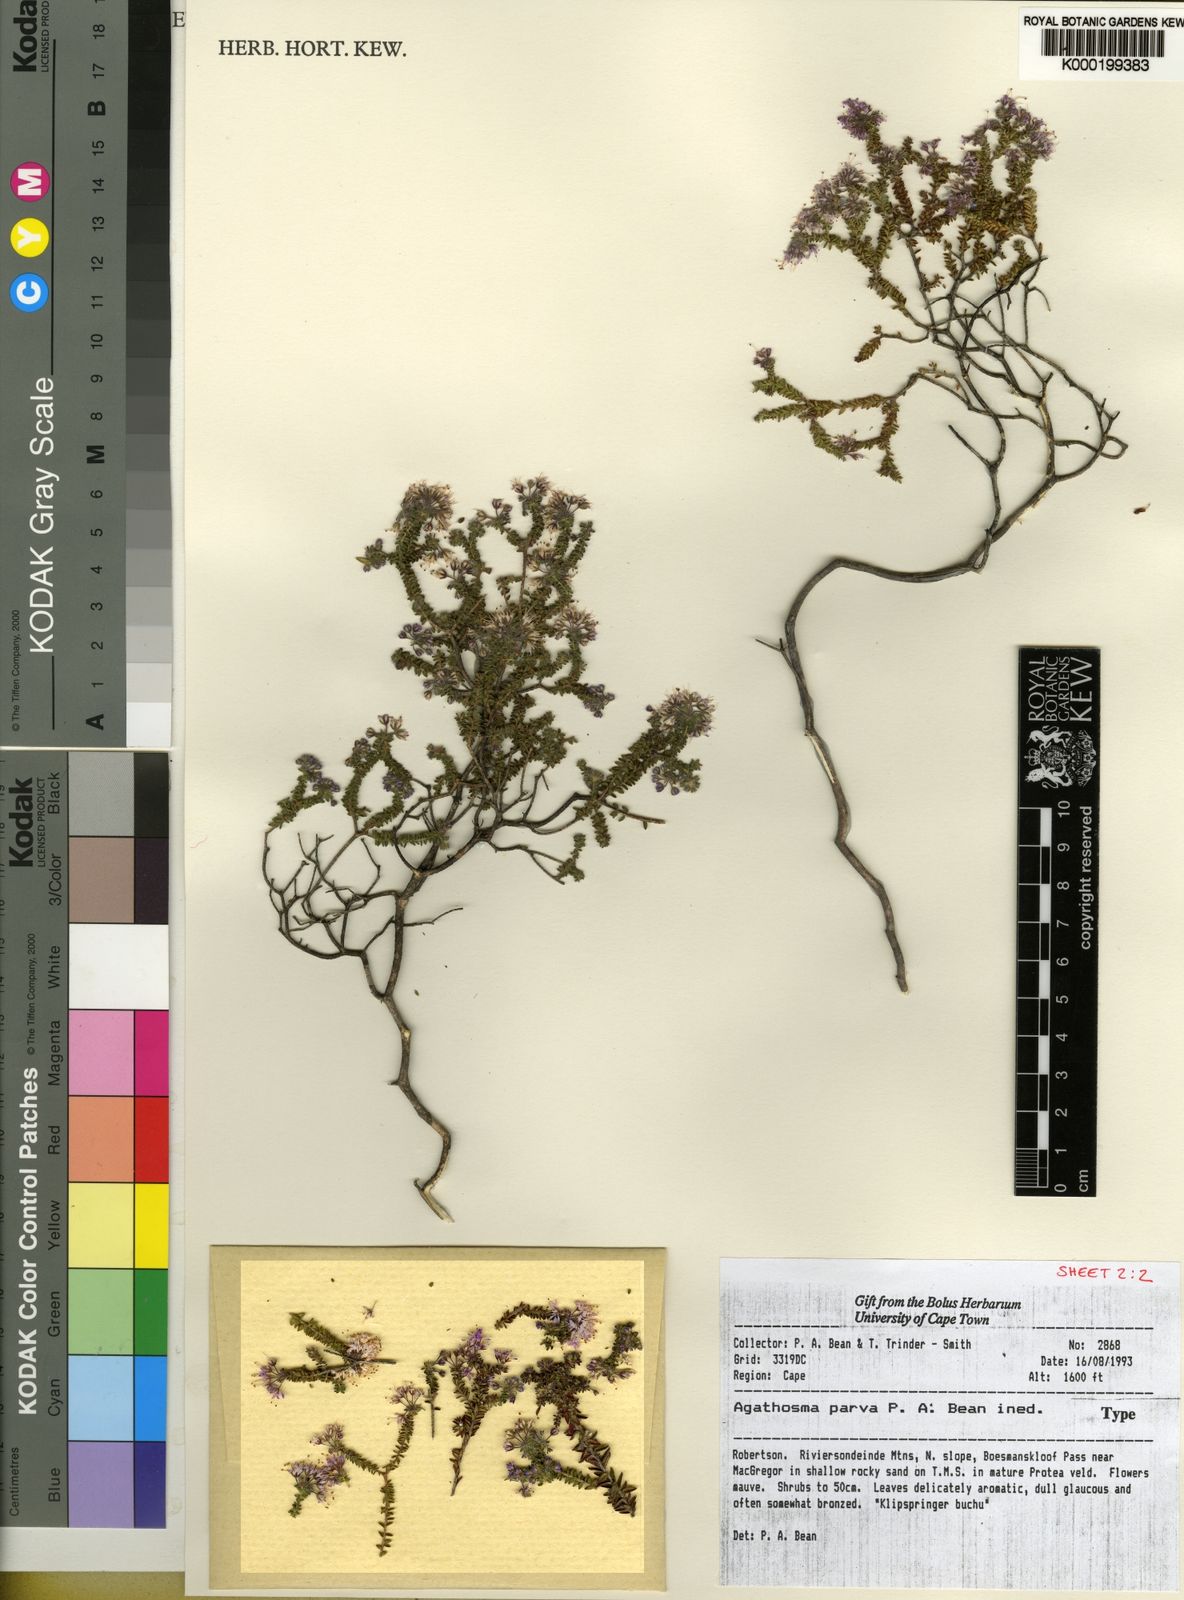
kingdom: Plantae
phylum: Tracheophyta
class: Magnoliopsida
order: Sapindales
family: Rutaceae
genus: Agathosma
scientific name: Agathosma
